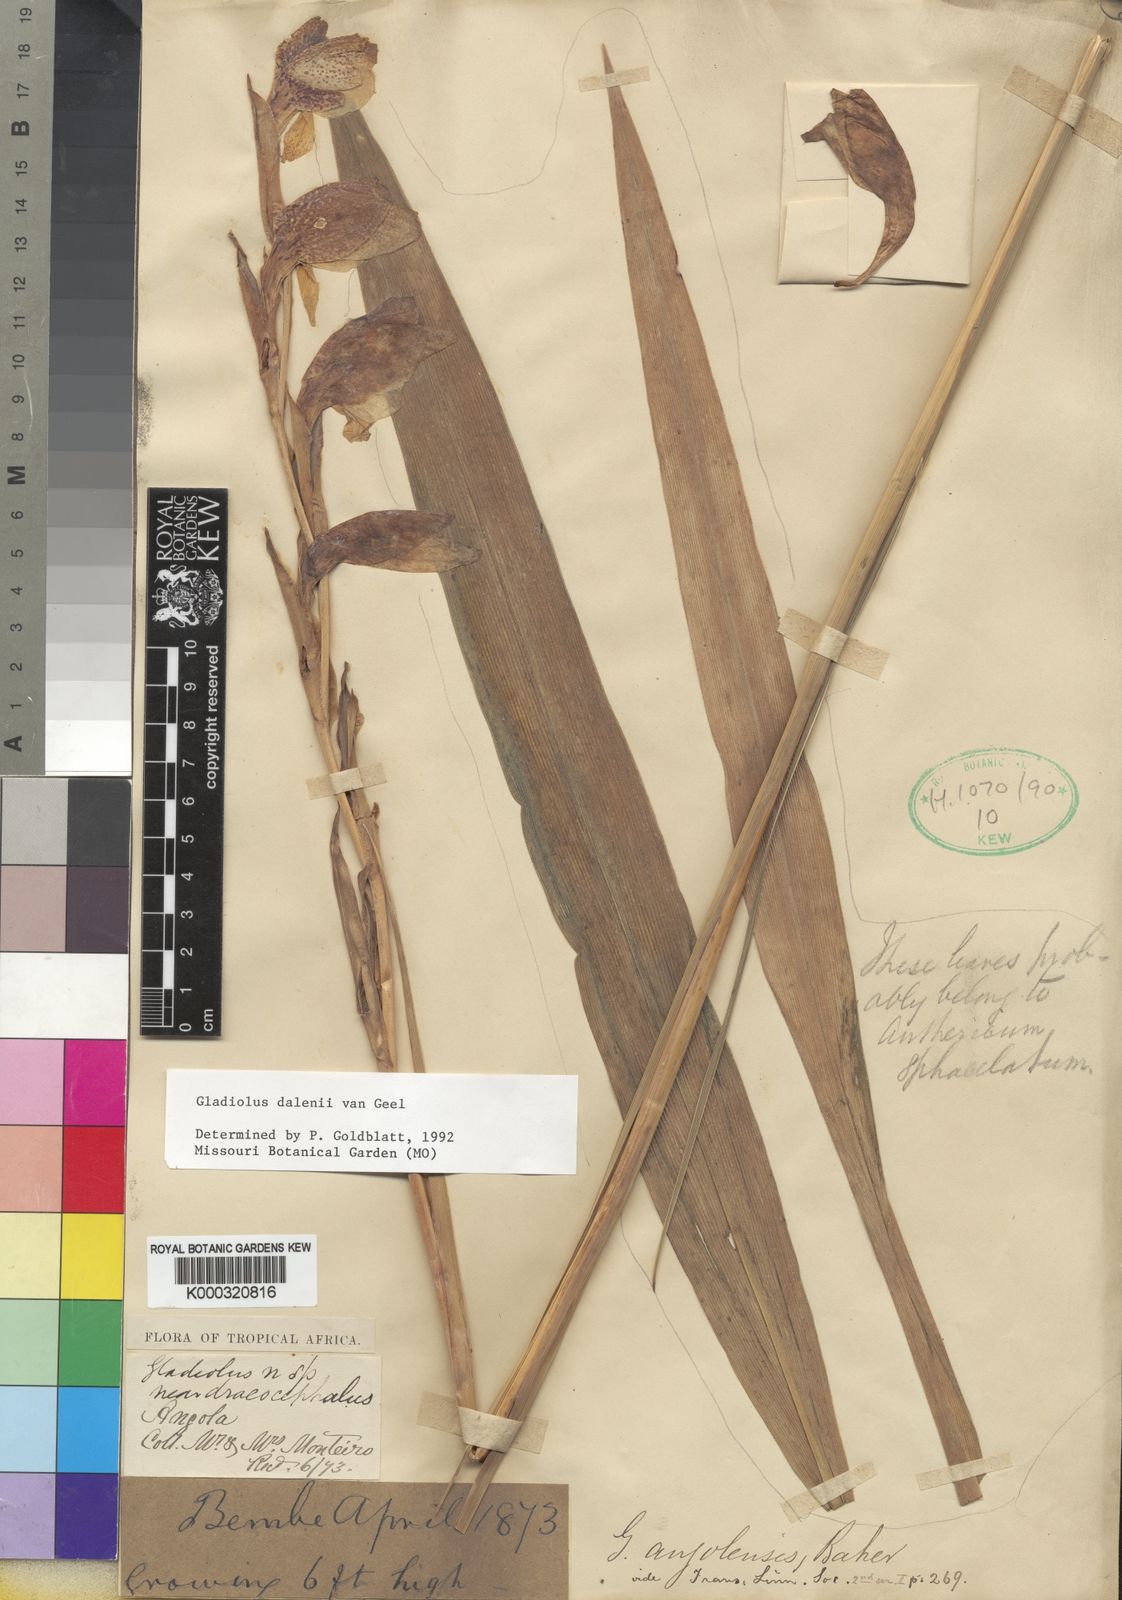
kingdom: Plantae
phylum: Tracheophyta
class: Liliopsida
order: Asparagales
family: Iridaceae
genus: Gladiolus
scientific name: Gladiolus dalenii
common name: Cornflag
